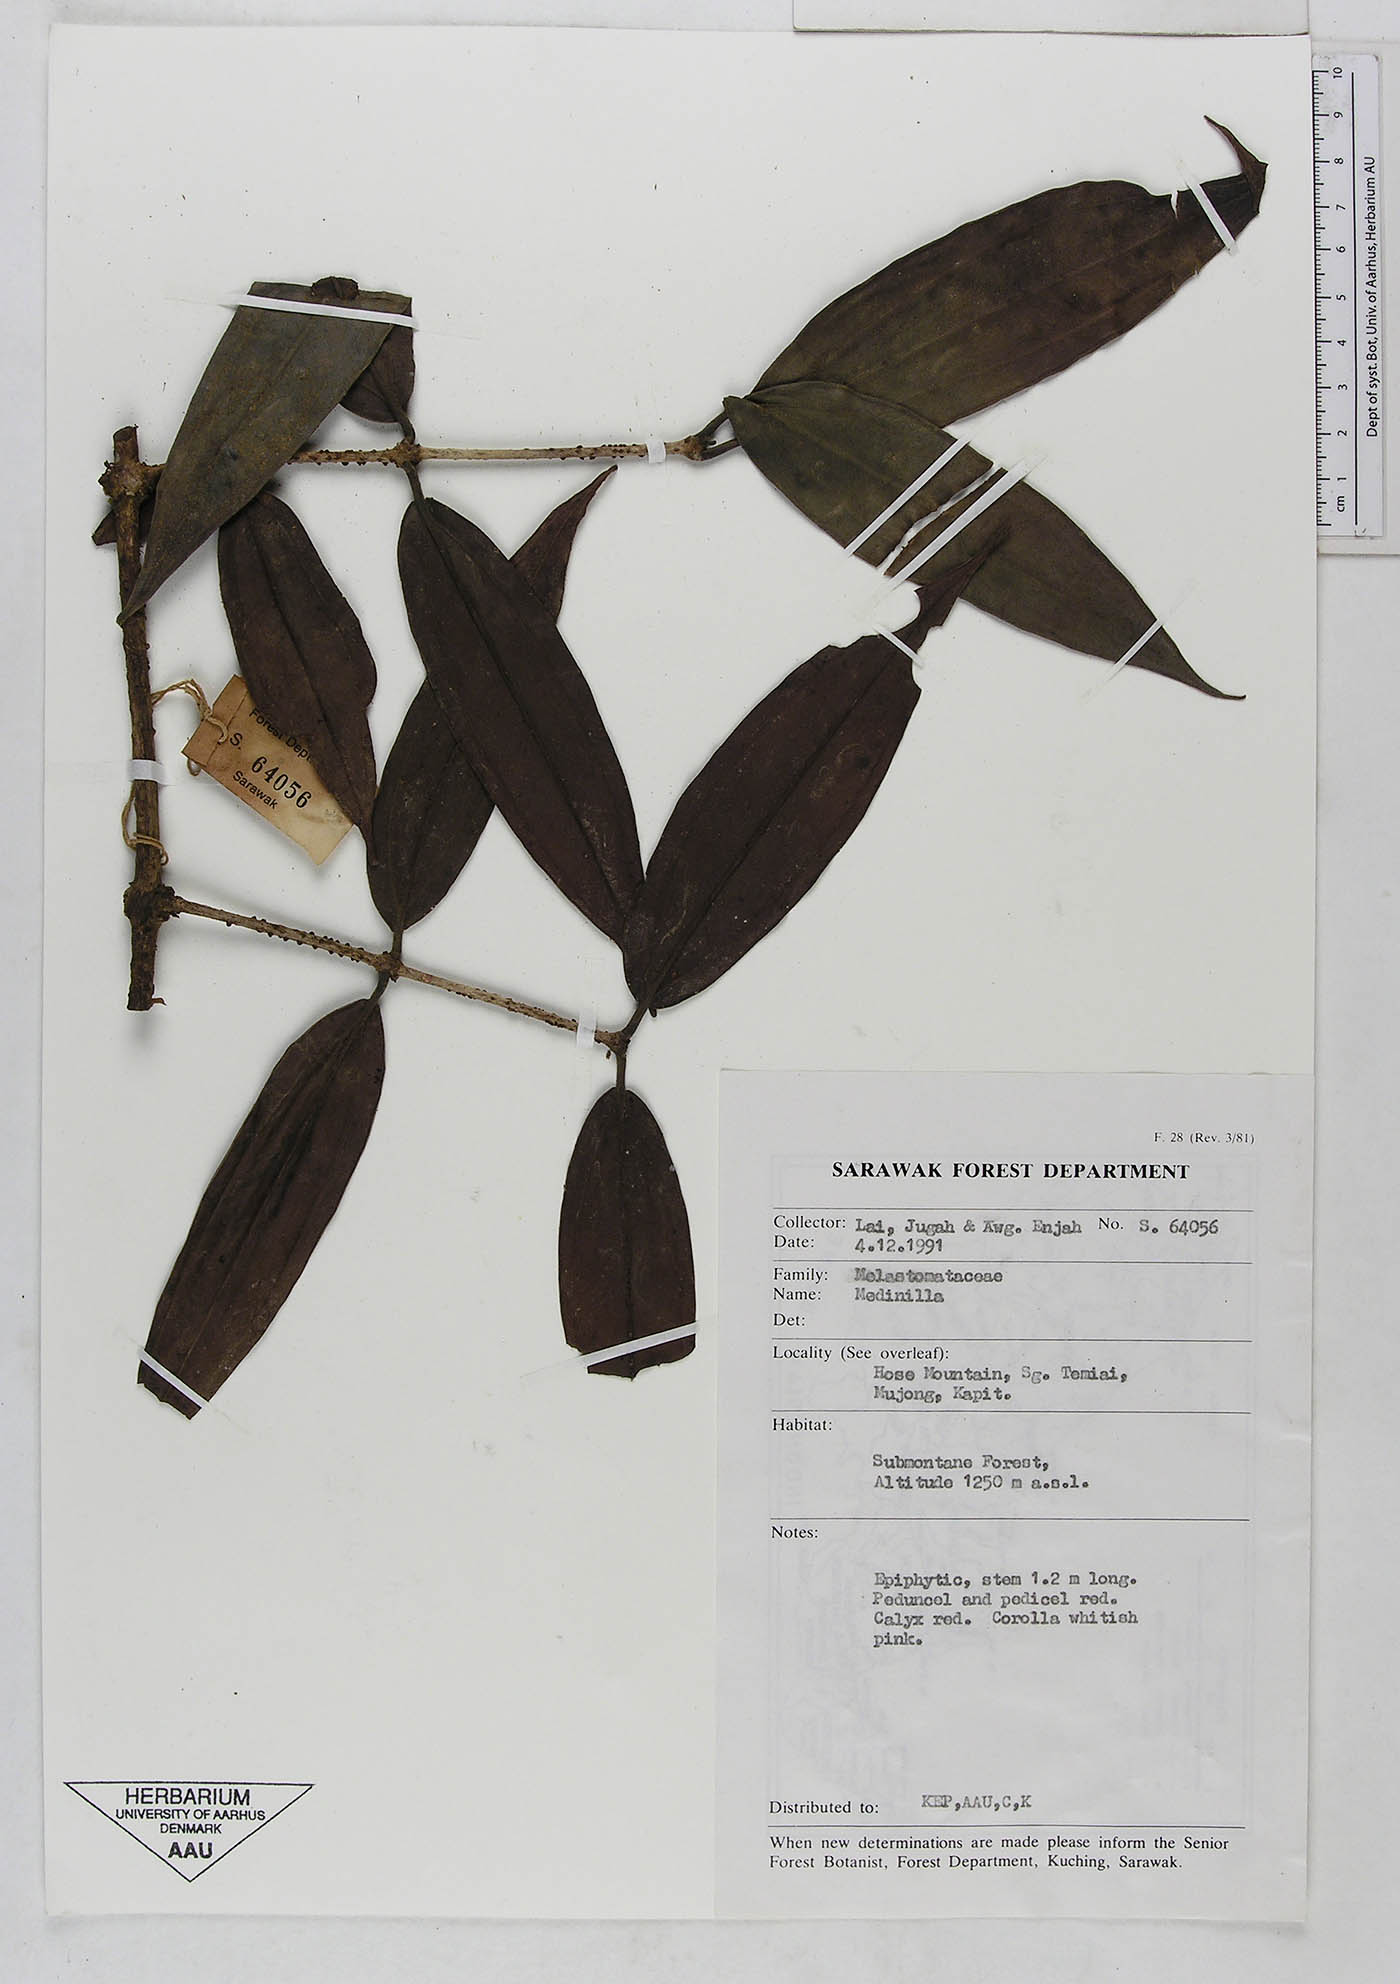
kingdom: Plantae
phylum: Tracheophyta
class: Magnoliopsida
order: Myrtales
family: Melastomataceae
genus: Medinilla
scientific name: Medinilla
